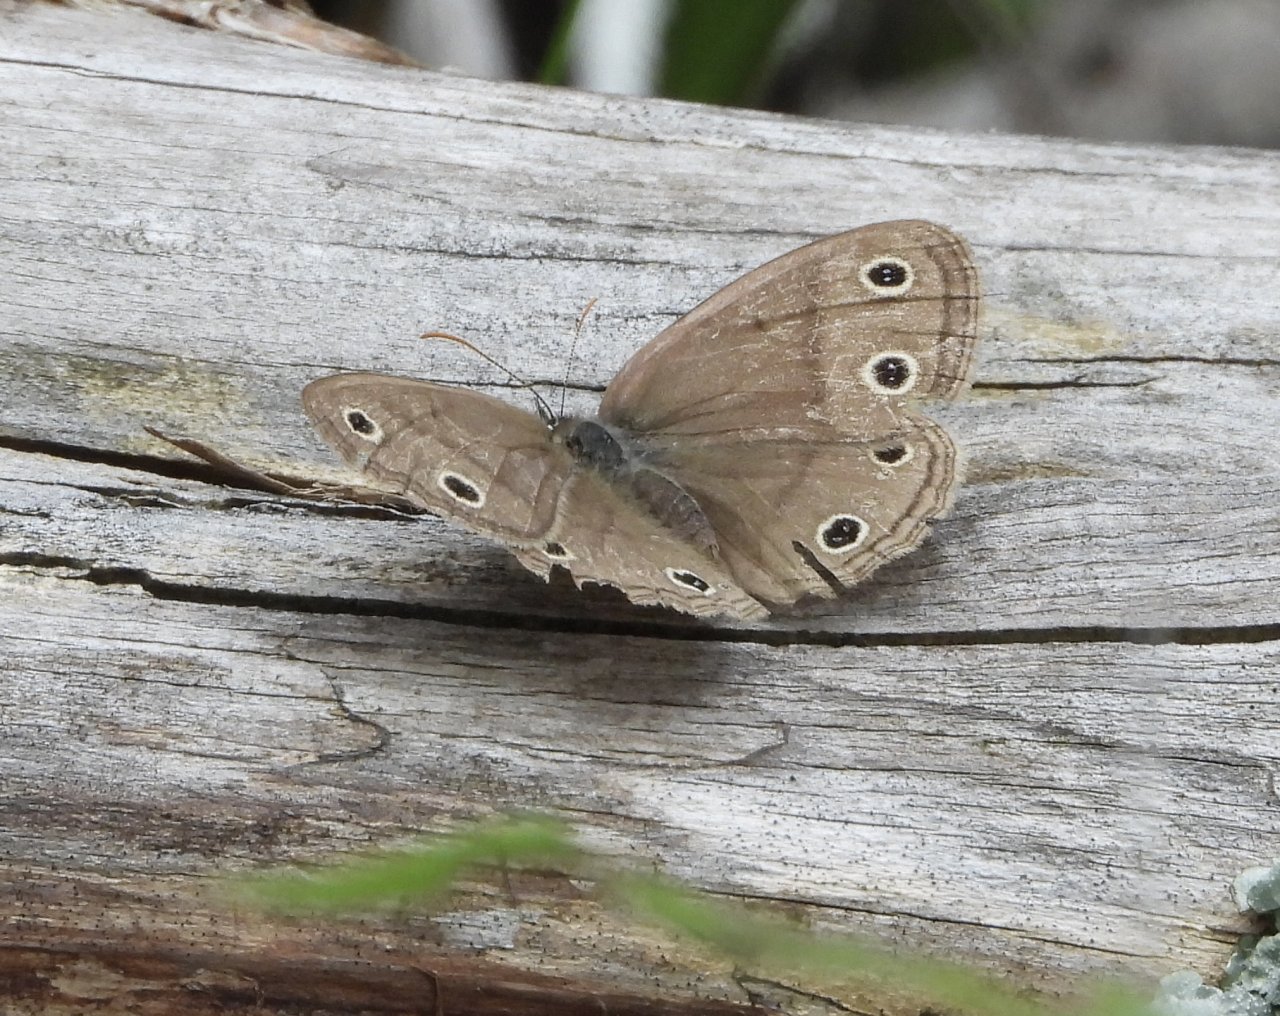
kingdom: Animalia
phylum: Arthropoda
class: Insecta
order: Lepidoptera
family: Nymphalidae
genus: Euptychia
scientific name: Euptychia cymela
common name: Little Wood Satyr
